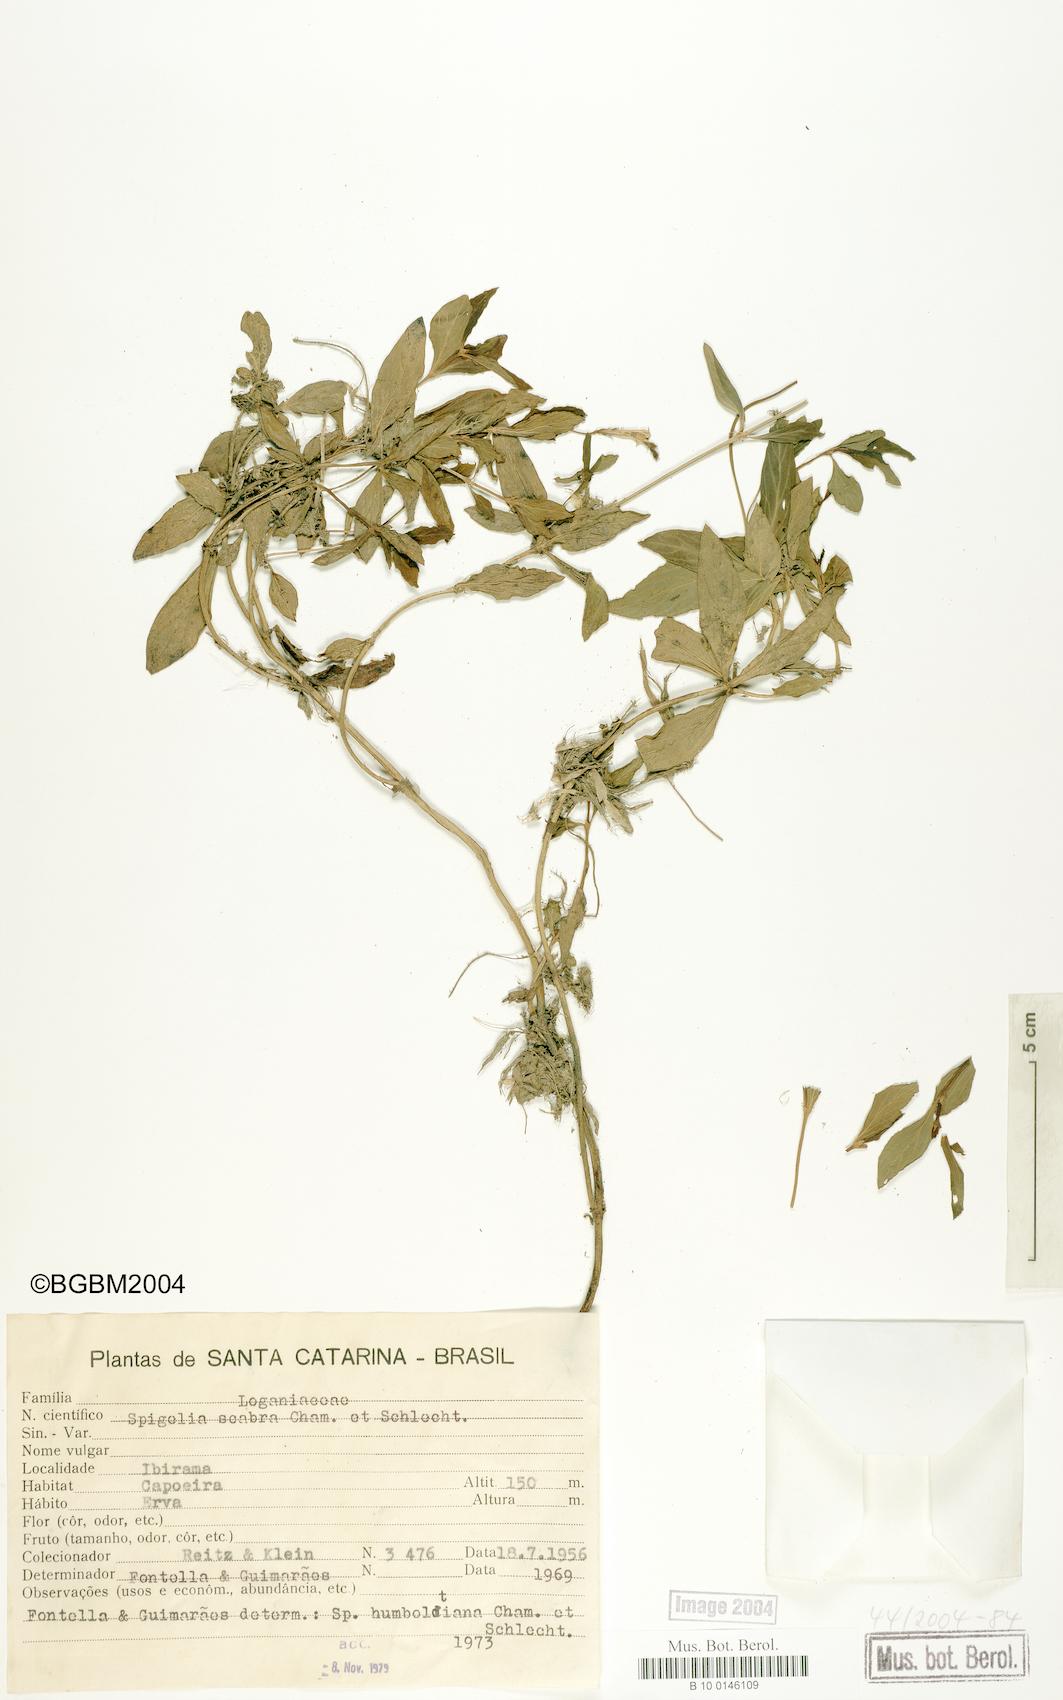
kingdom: Plantae
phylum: Tracheophyta
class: Magnoliopsida
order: Gentianales
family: Loganiaceae
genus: Spigelia
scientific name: Spigelia humboldtiana
